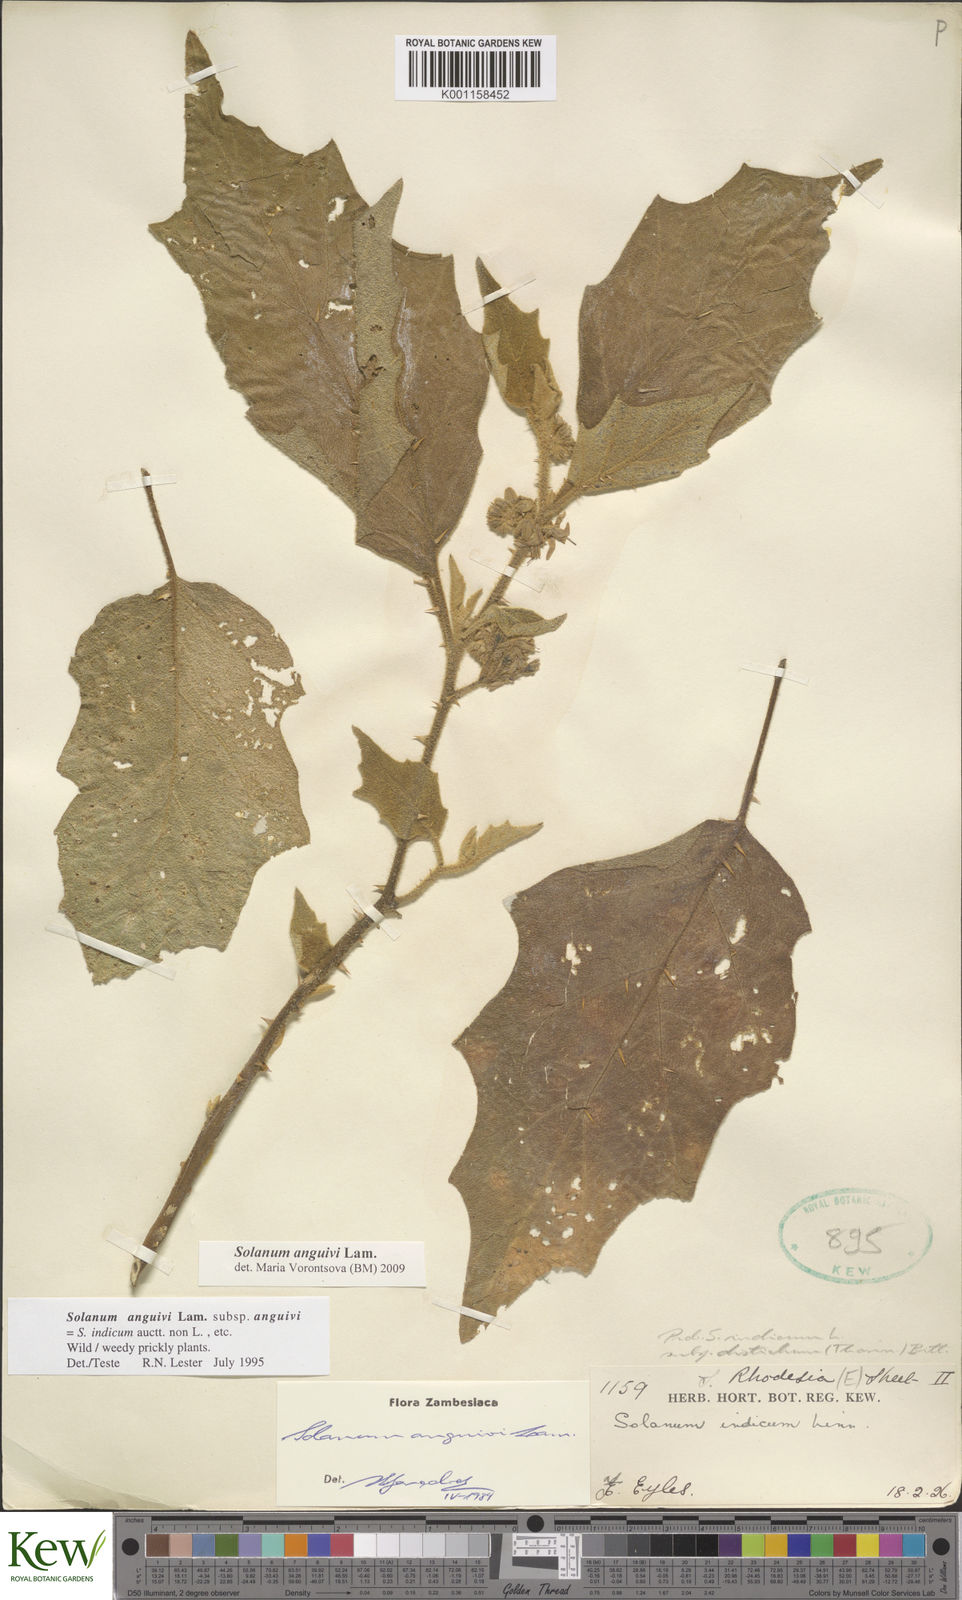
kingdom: Plantae
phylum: Tracheophyta
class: Magnoliopsida
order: Solanales
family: Solanaceae
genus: Solanum
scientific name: Solanum anguivi
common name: Forest bitterberry
